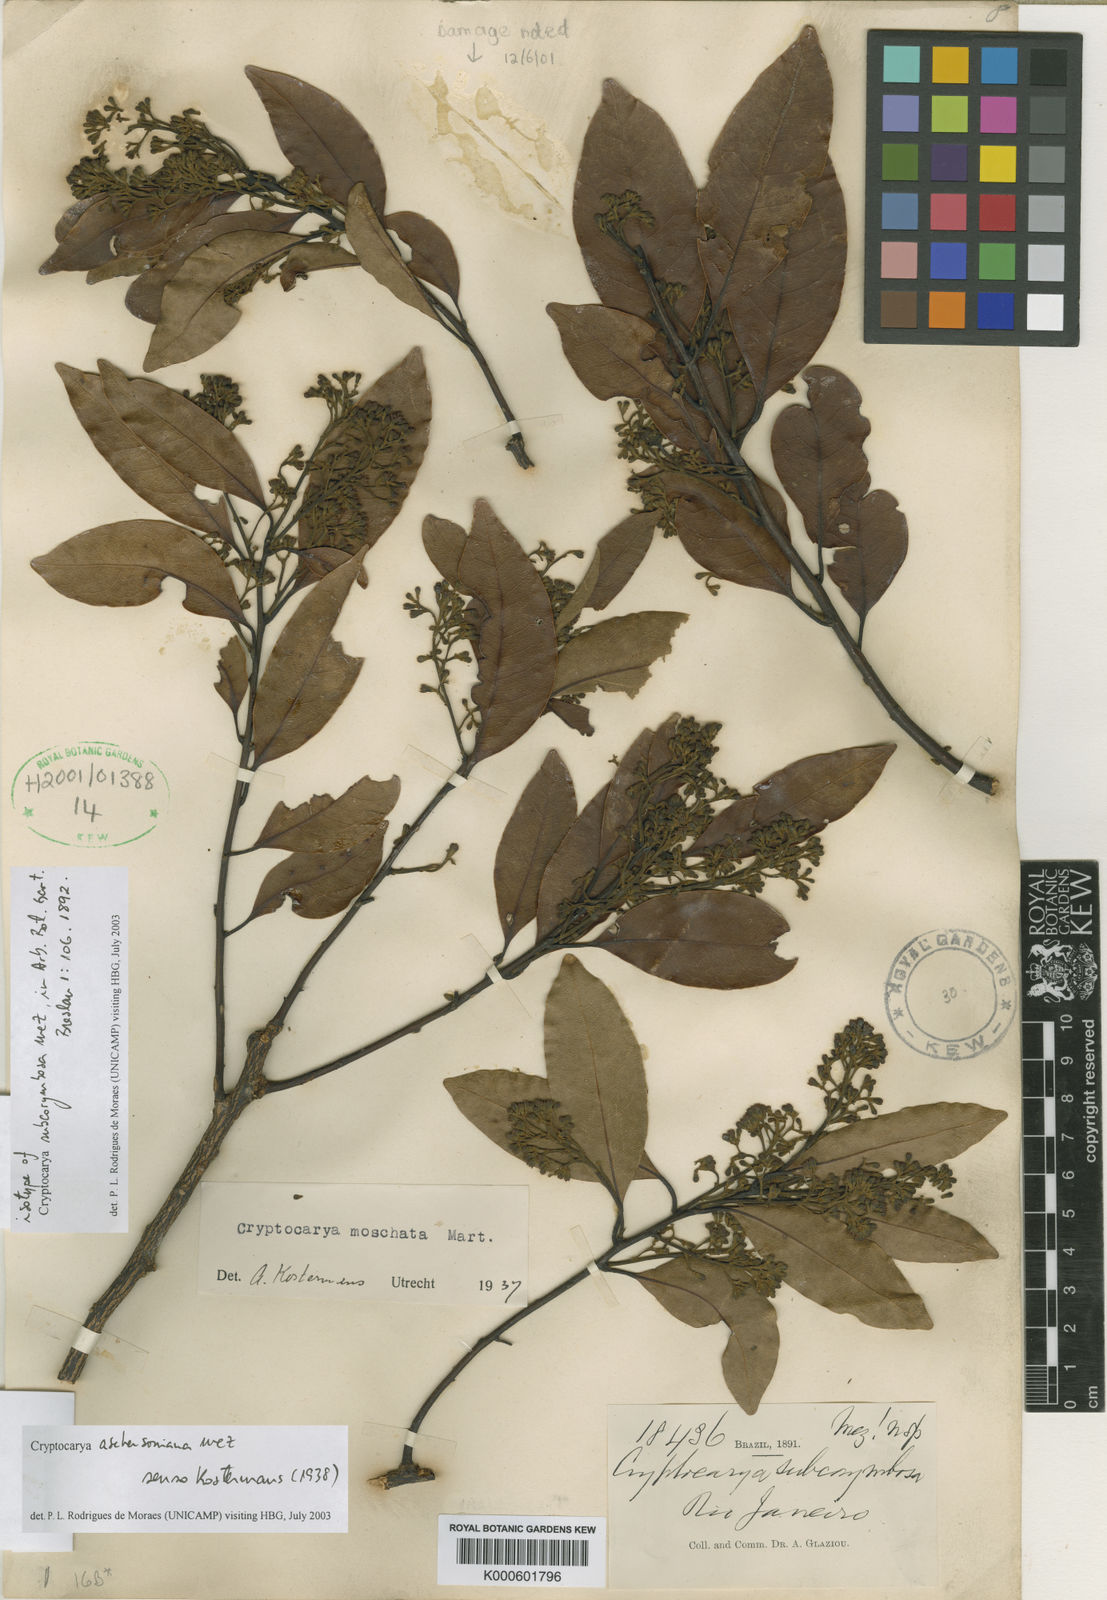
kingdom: Plantae
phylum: Tracheophyta
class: Magnoliopsida
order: Laurales
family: Lauraceae
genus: Cryptocarya
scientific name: Cryptocarya aschersoniana
